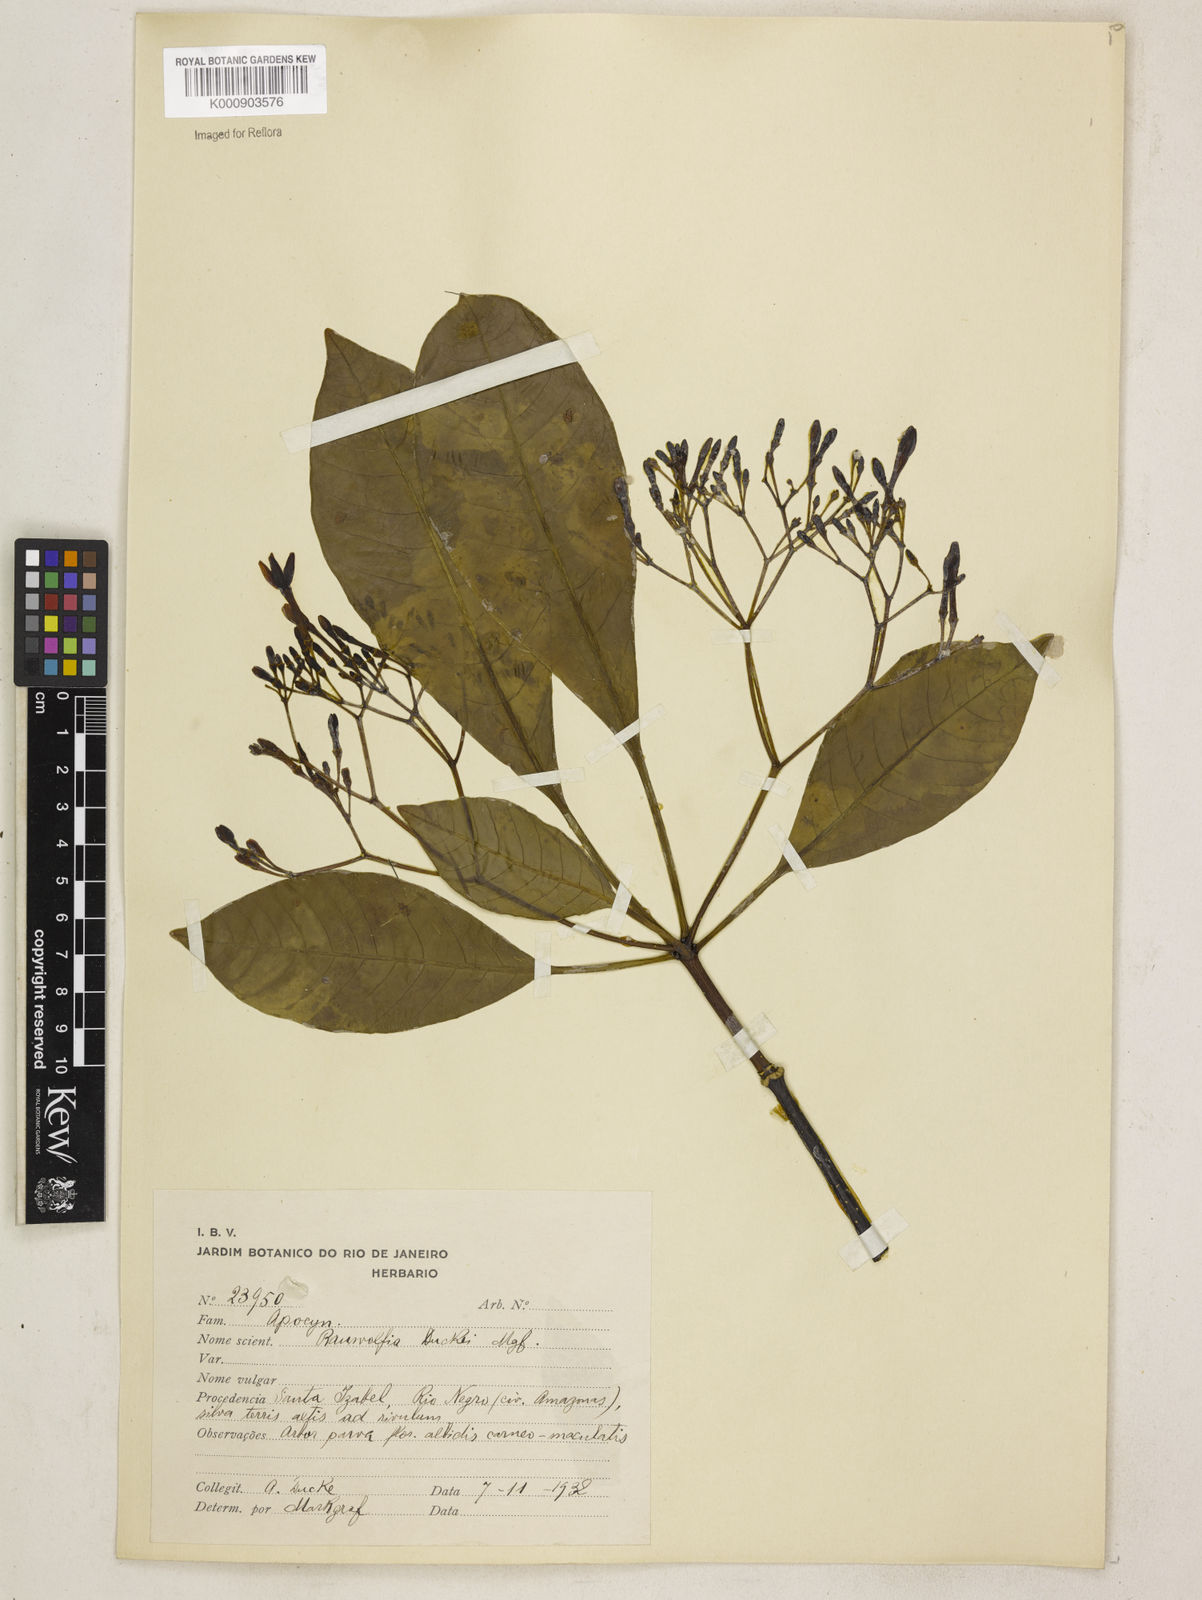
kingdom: Plantae
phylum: Tracheophyta
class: Magnoliopsida
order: Gentianales
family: Apocynaceae
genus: Rauvolfia
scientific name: Rauvolfia pentaphylla
